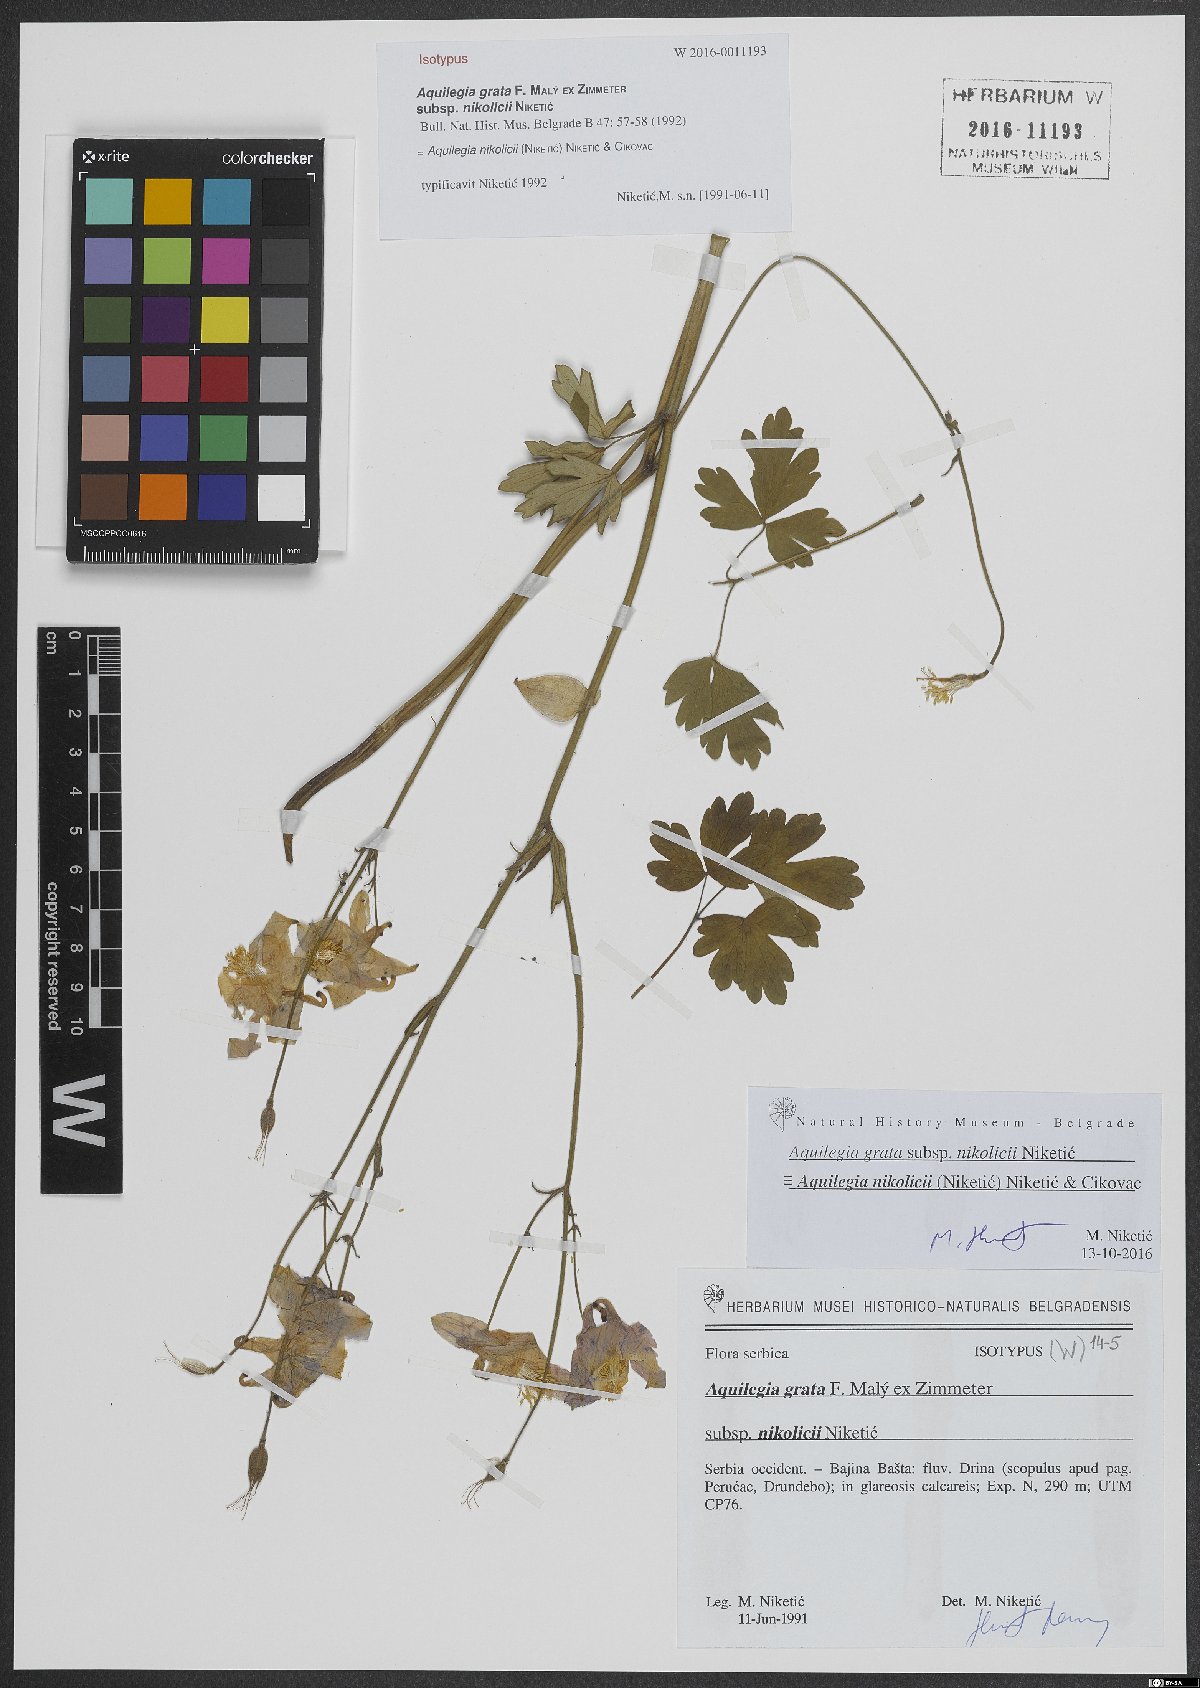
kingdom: Plantae
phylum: Tracheophyta
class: Magnoliopsida
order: Ranunculales
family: Ranunculaceae
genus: Aquilegia
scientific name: Aquilegia nikolicii
